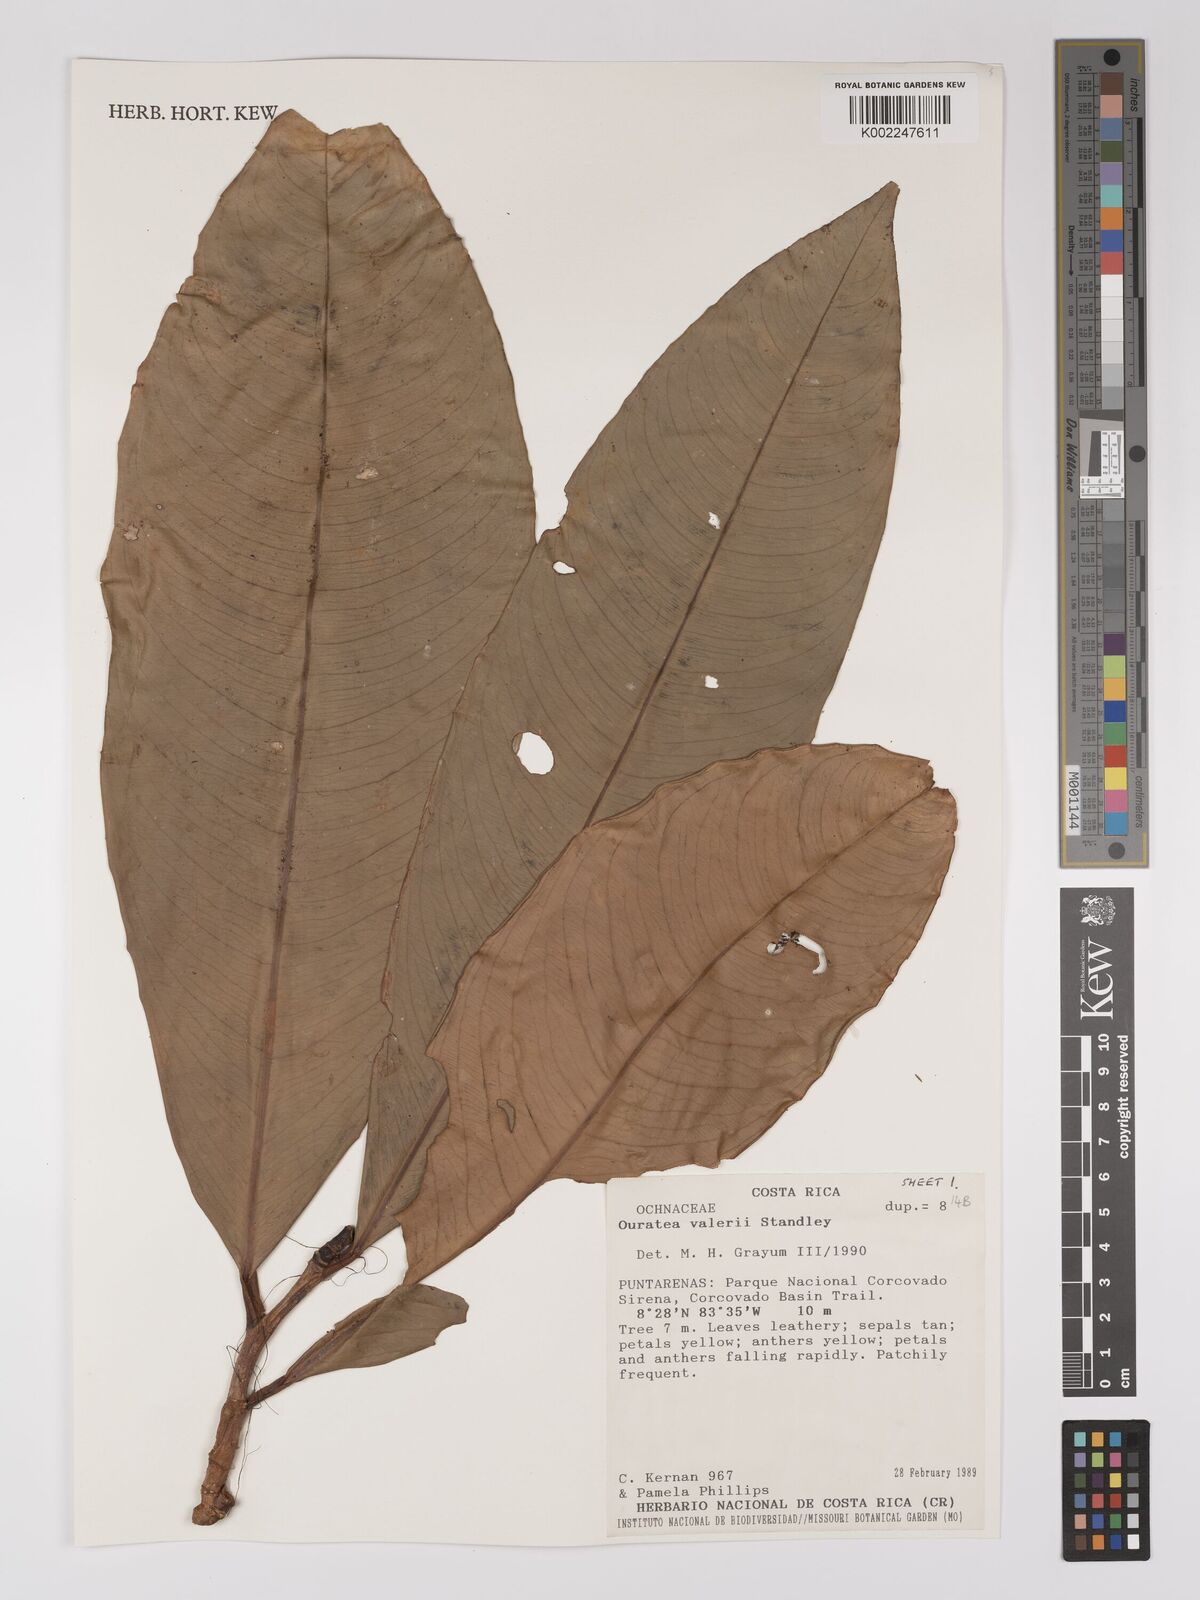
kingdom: Plantae
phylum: Tracheophyta
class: Magnoliopsida
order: Malpighiales
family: Ochnaceae
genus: Ouratea
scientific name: Ouratea valerioi
